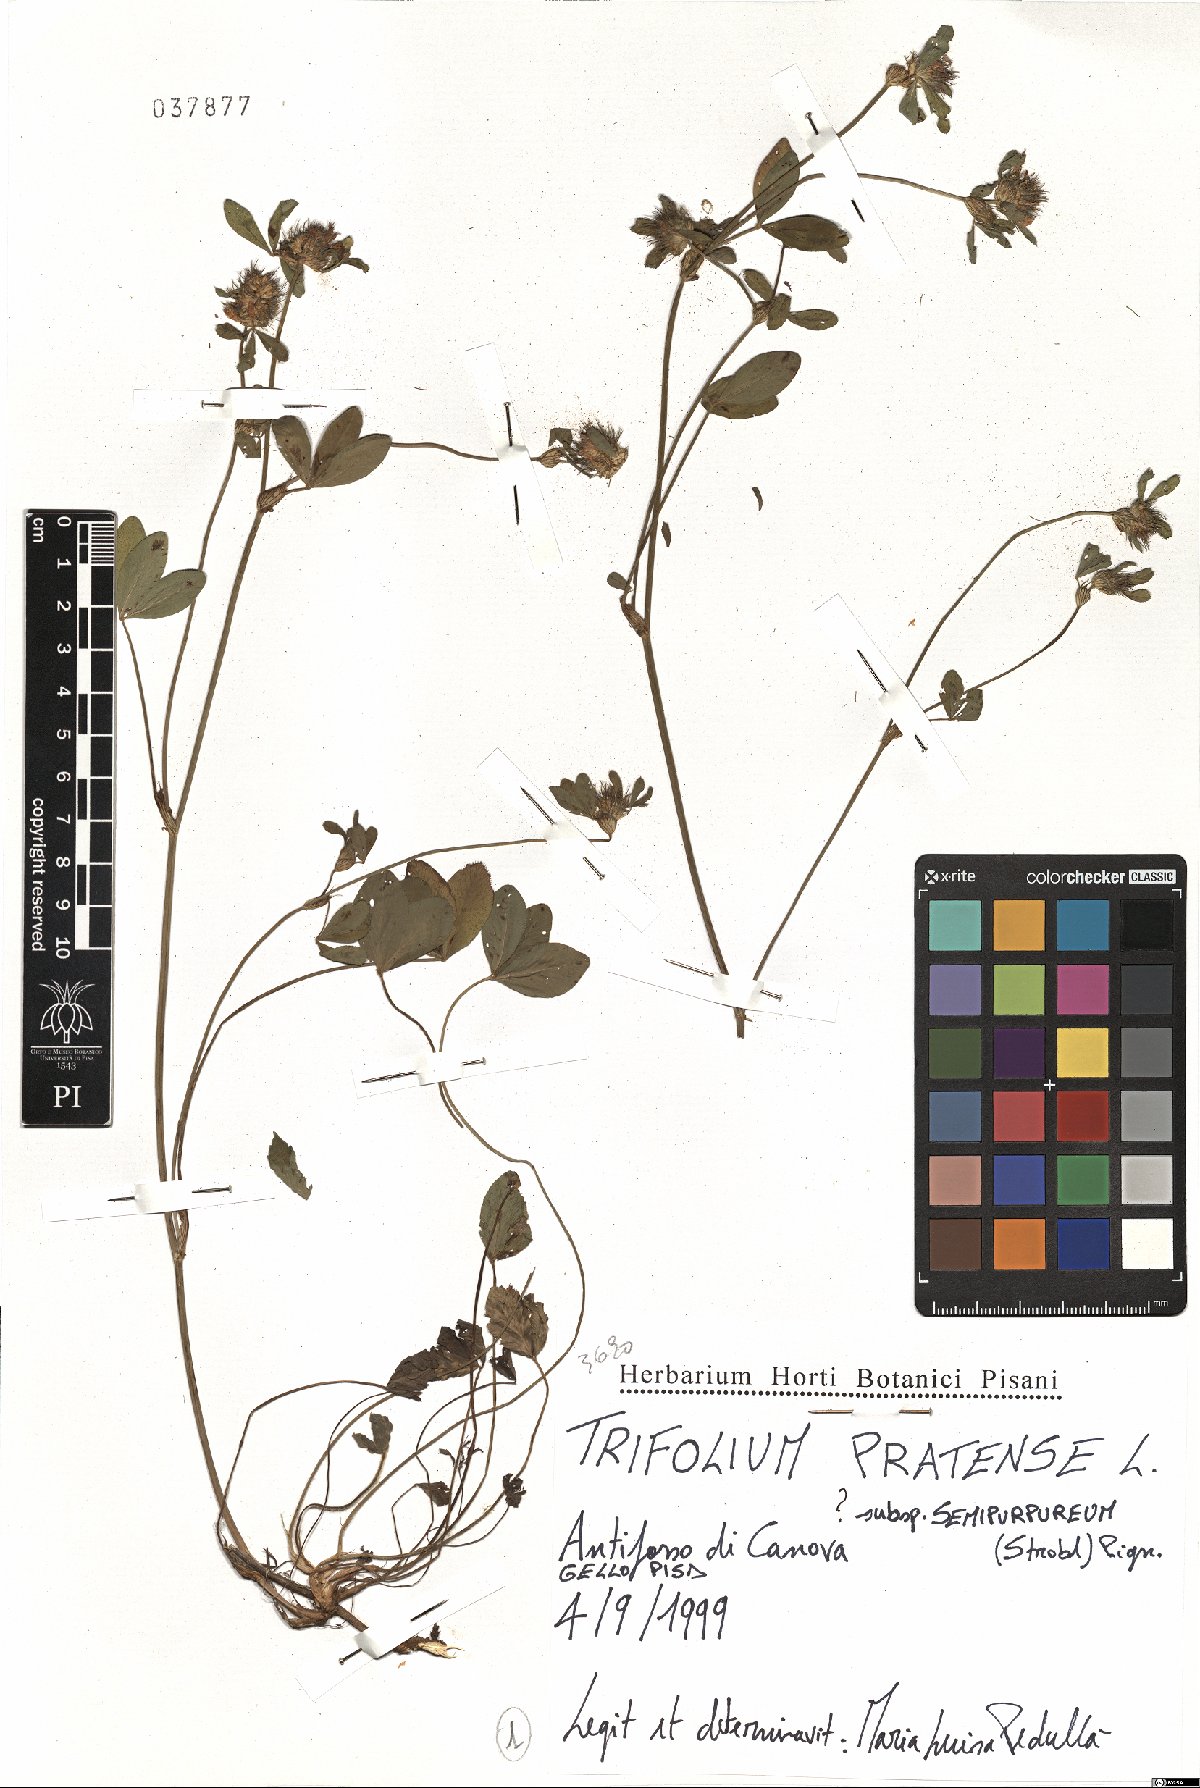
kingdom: Plantae
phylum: Tracheophyta
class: Magnoliopsida
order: Fabales
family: Fabaceae
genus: Trifolium
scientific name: Trifolium pratense
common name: Red clover
